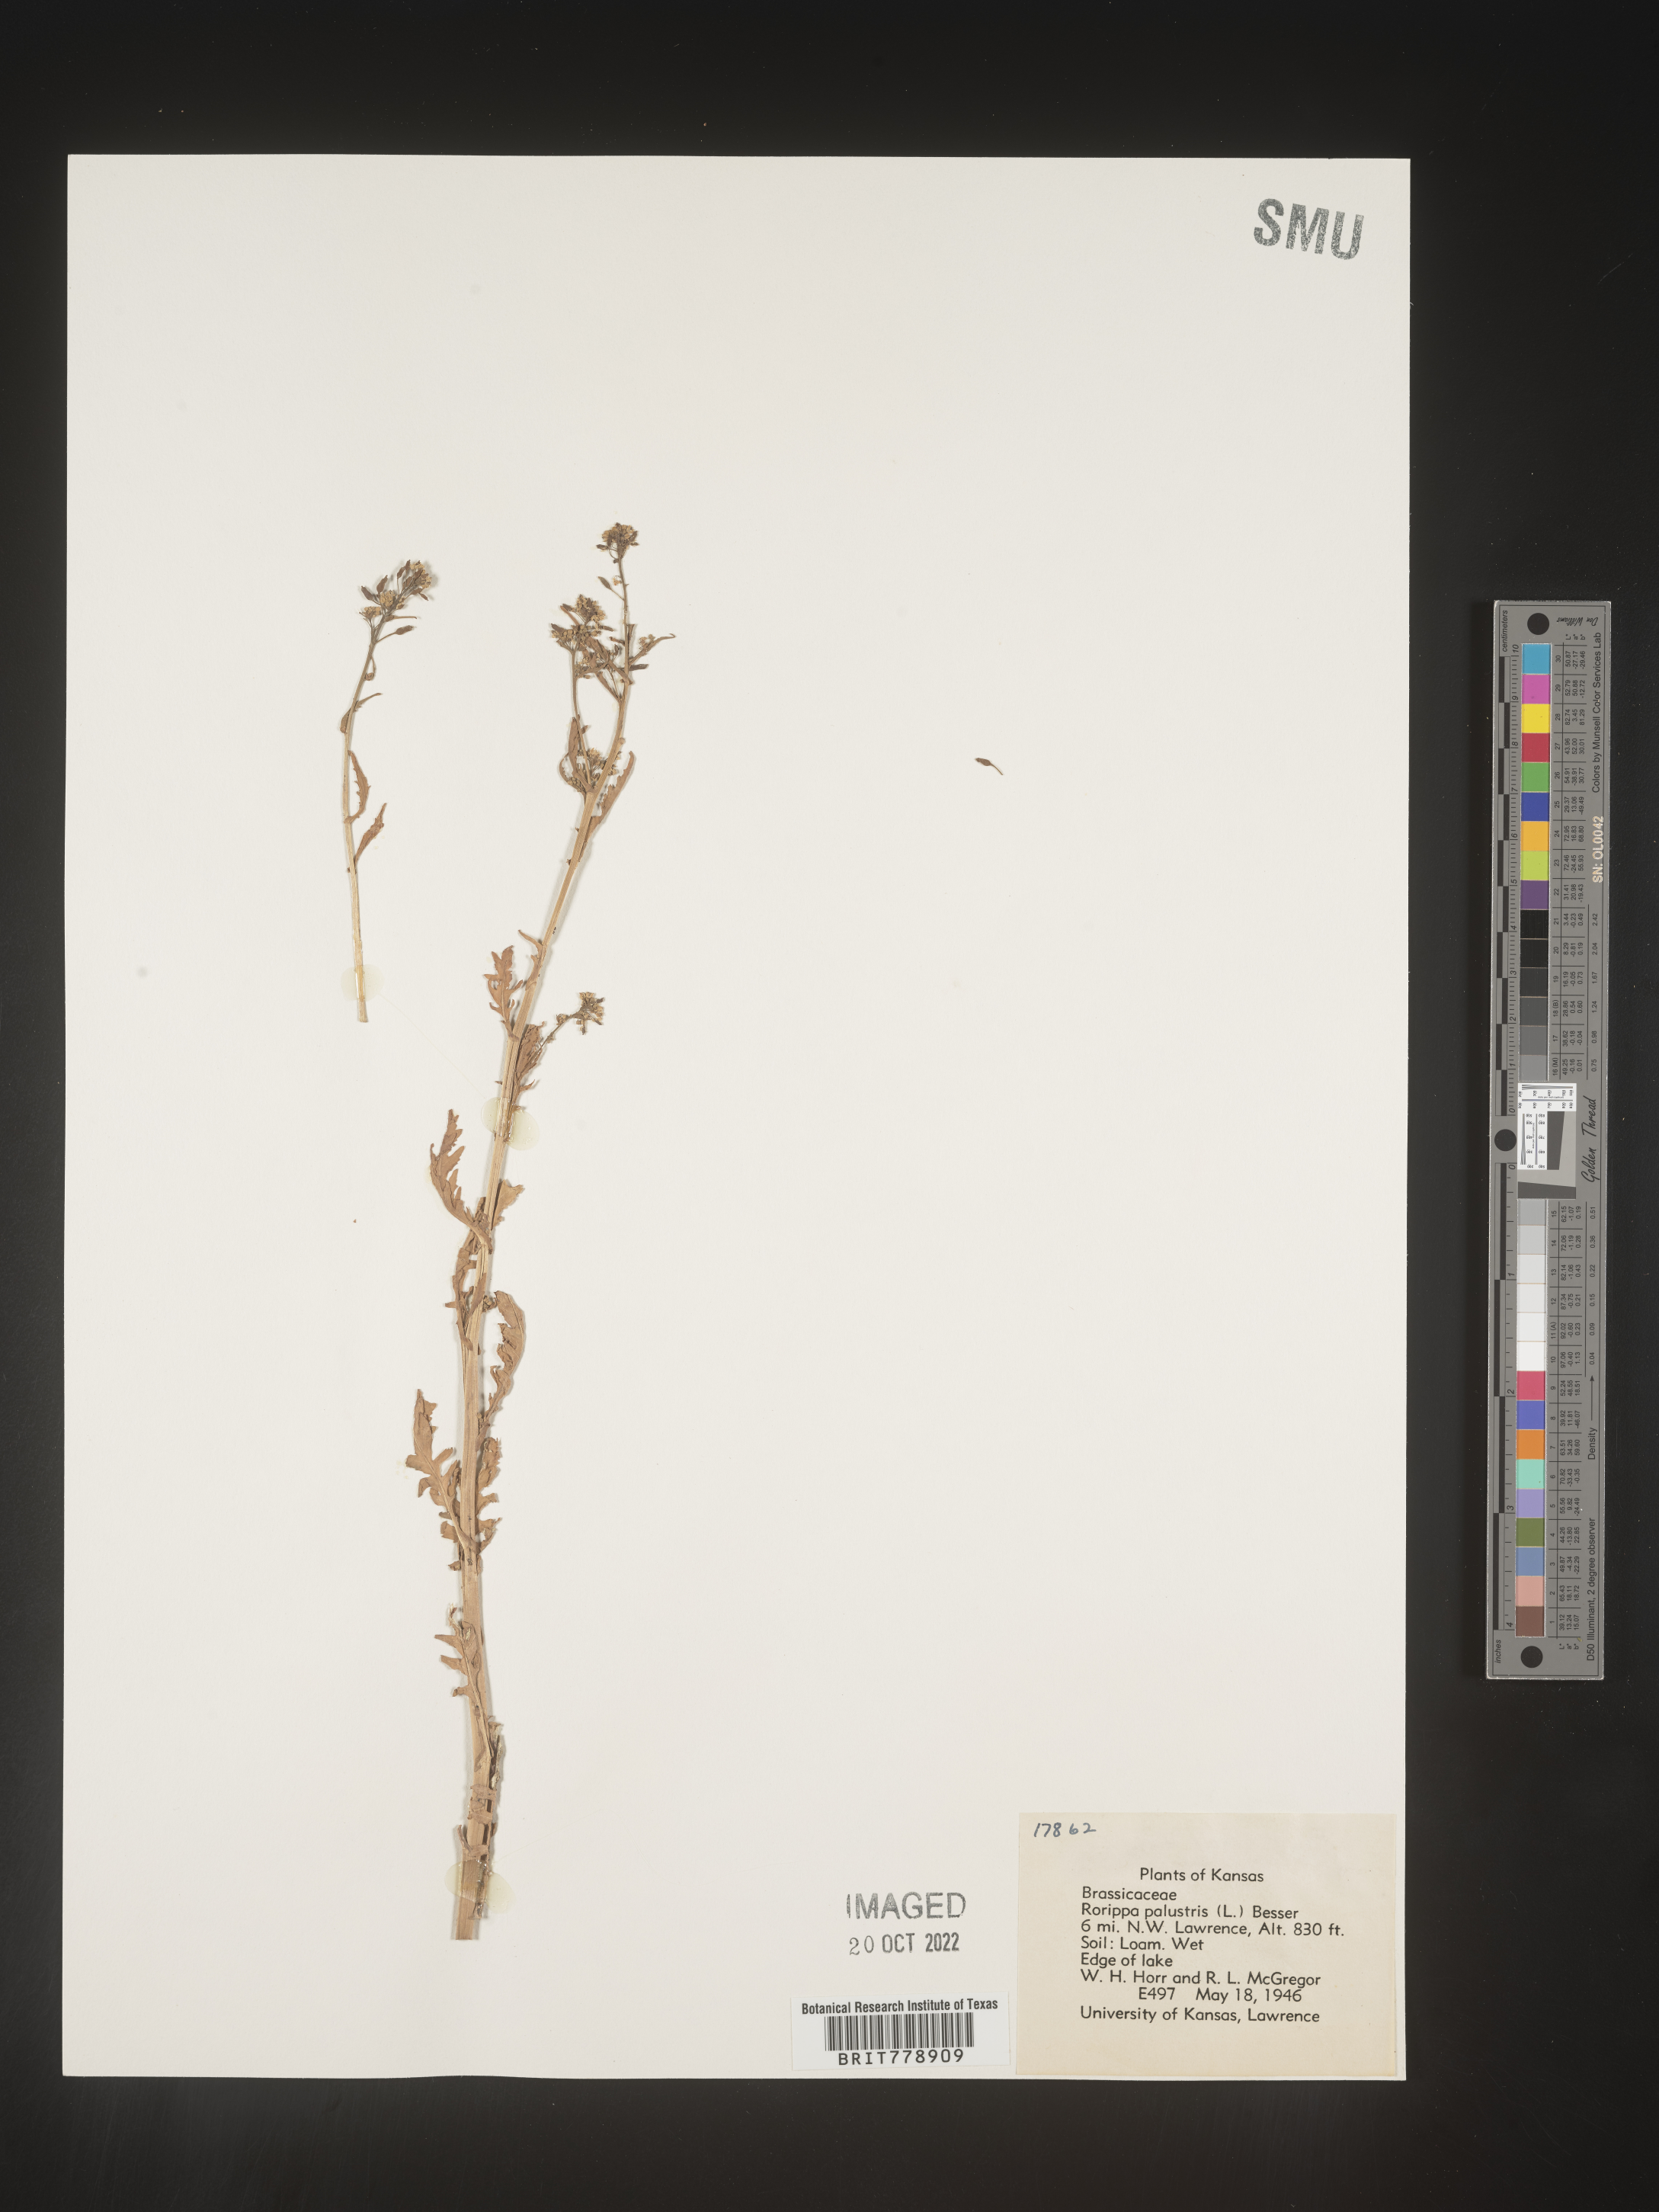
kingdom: Plantae
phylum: Tracheophyta
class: Magnoliopsida
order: Brassicales
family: Brassicaceae
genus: Rorippa
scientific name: Rorippa palustris
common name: Marsh yellow-cress
